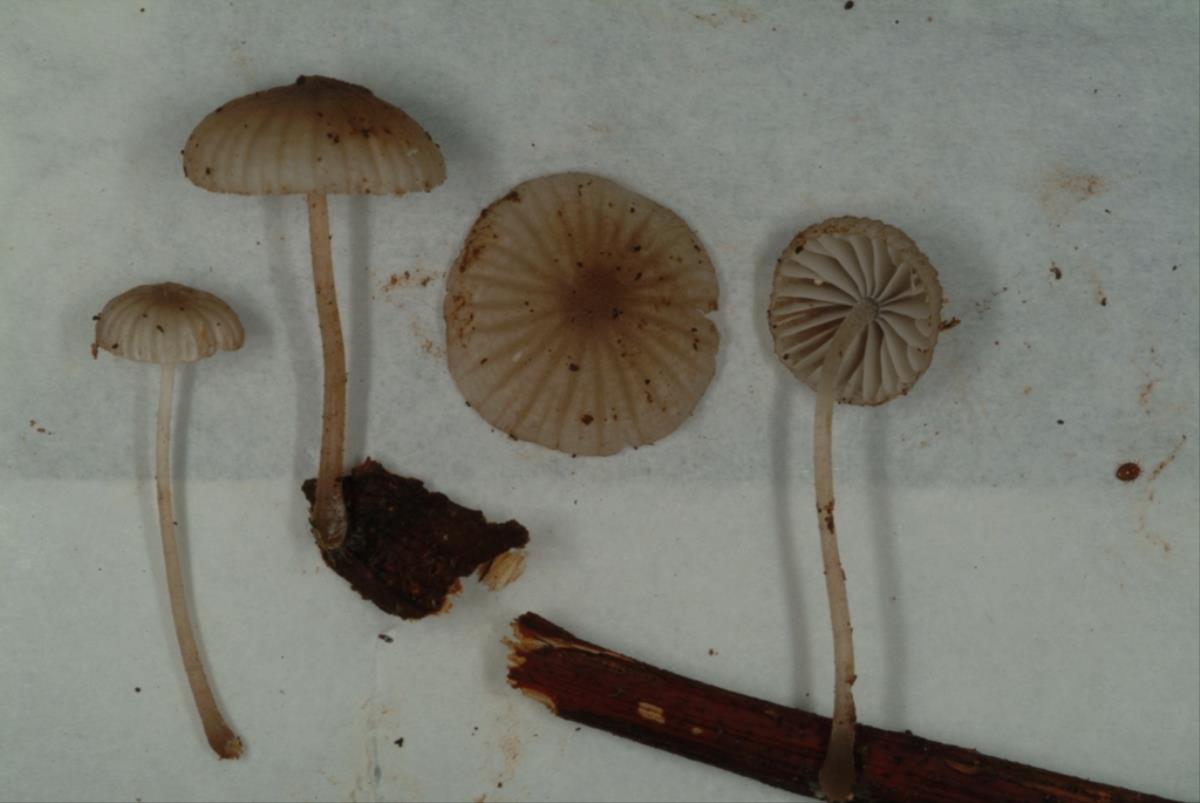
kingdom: Fungi
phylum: Basidiomycota
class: Agaricomycetes
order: Agaricales
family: Mycenaceae
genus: Mycena
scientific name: Mycena
